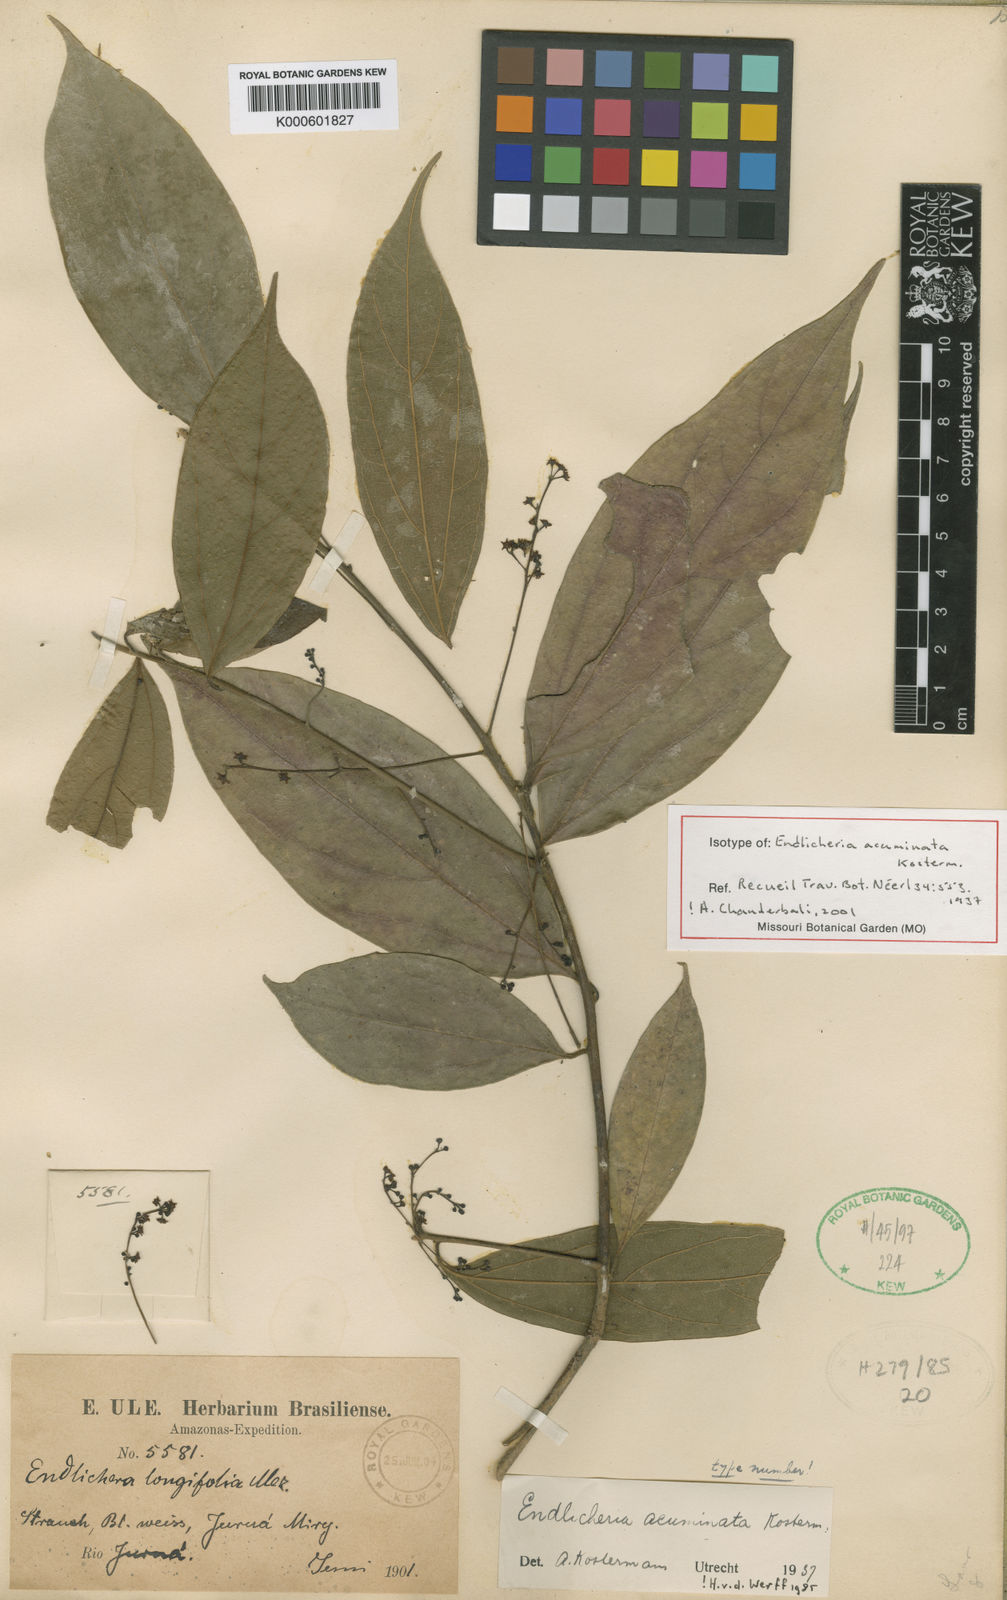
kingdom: Plantae
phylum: Tracheophyta
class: Magnoliopsida
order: Laurales
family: Lauraceae
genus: Endlicheria
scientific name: Endlicheria acuminata
